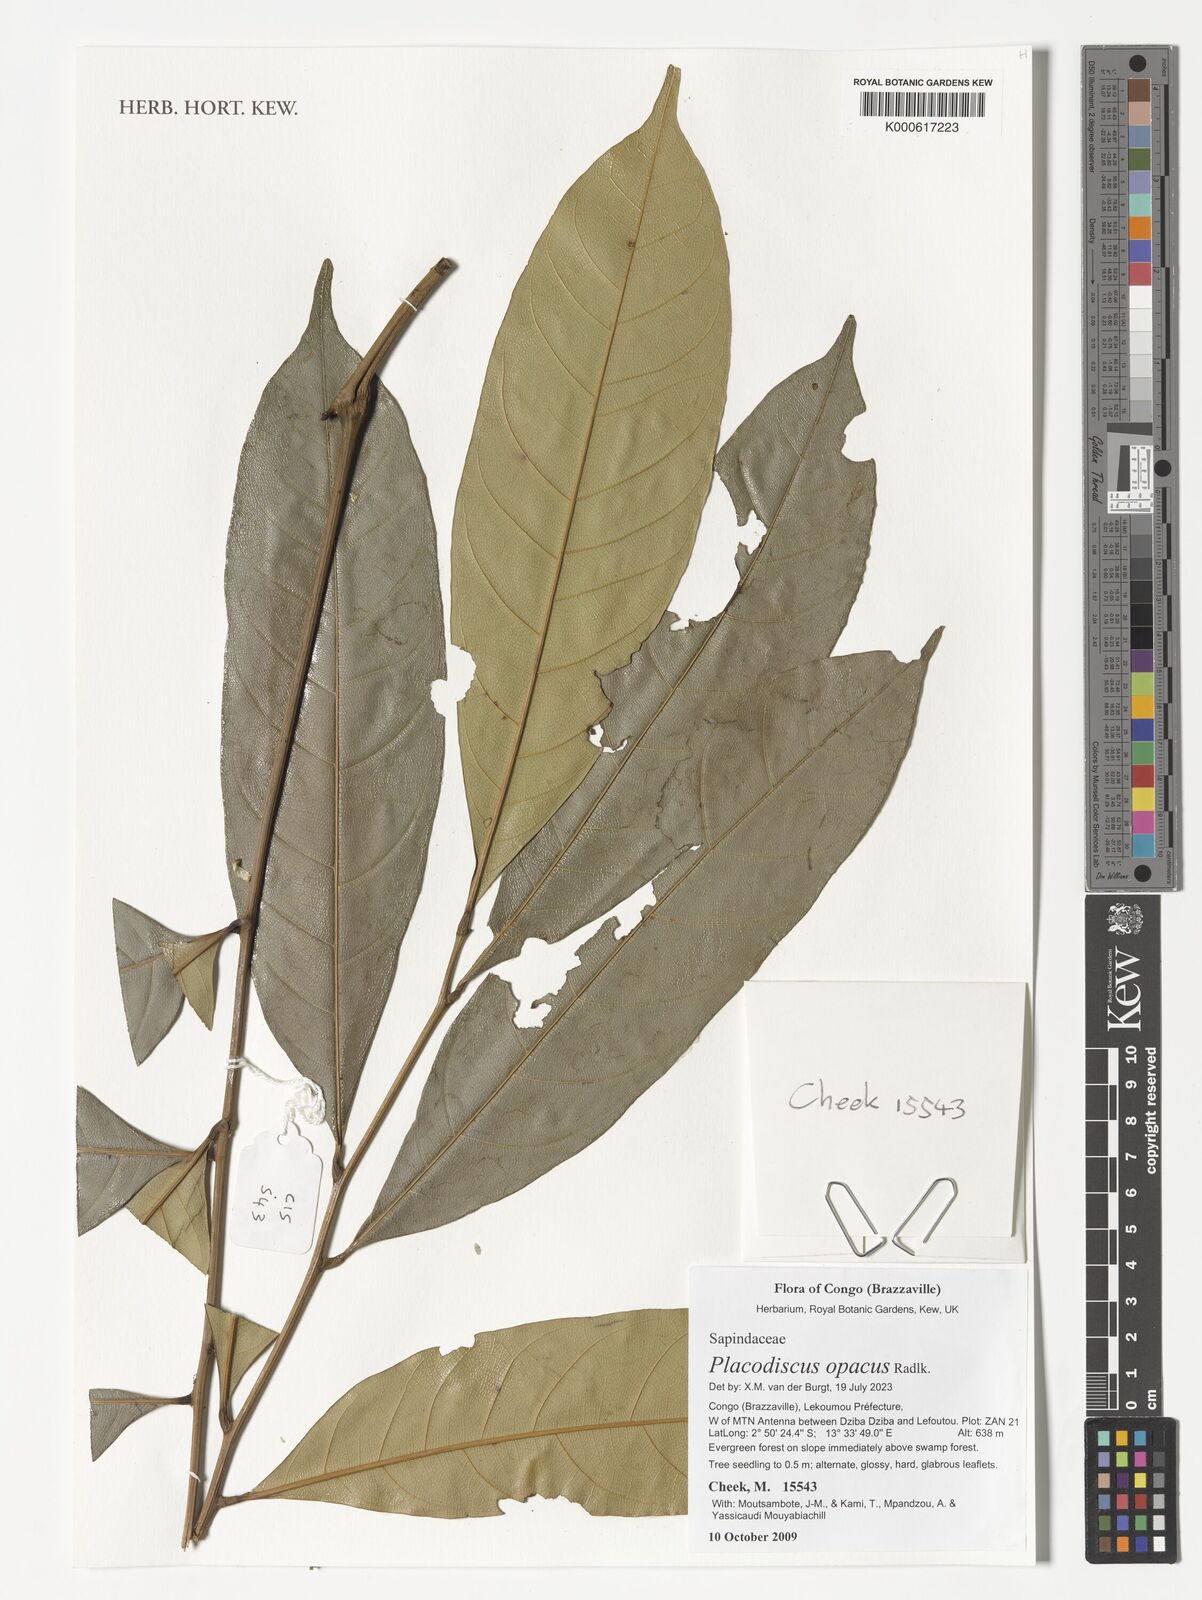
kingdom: Plantae
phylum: Tracheophyta
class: Magnoliopsida
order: Sapindales
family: Sapindaceae
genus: Placodiscus
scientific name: Placodiscus opacus
